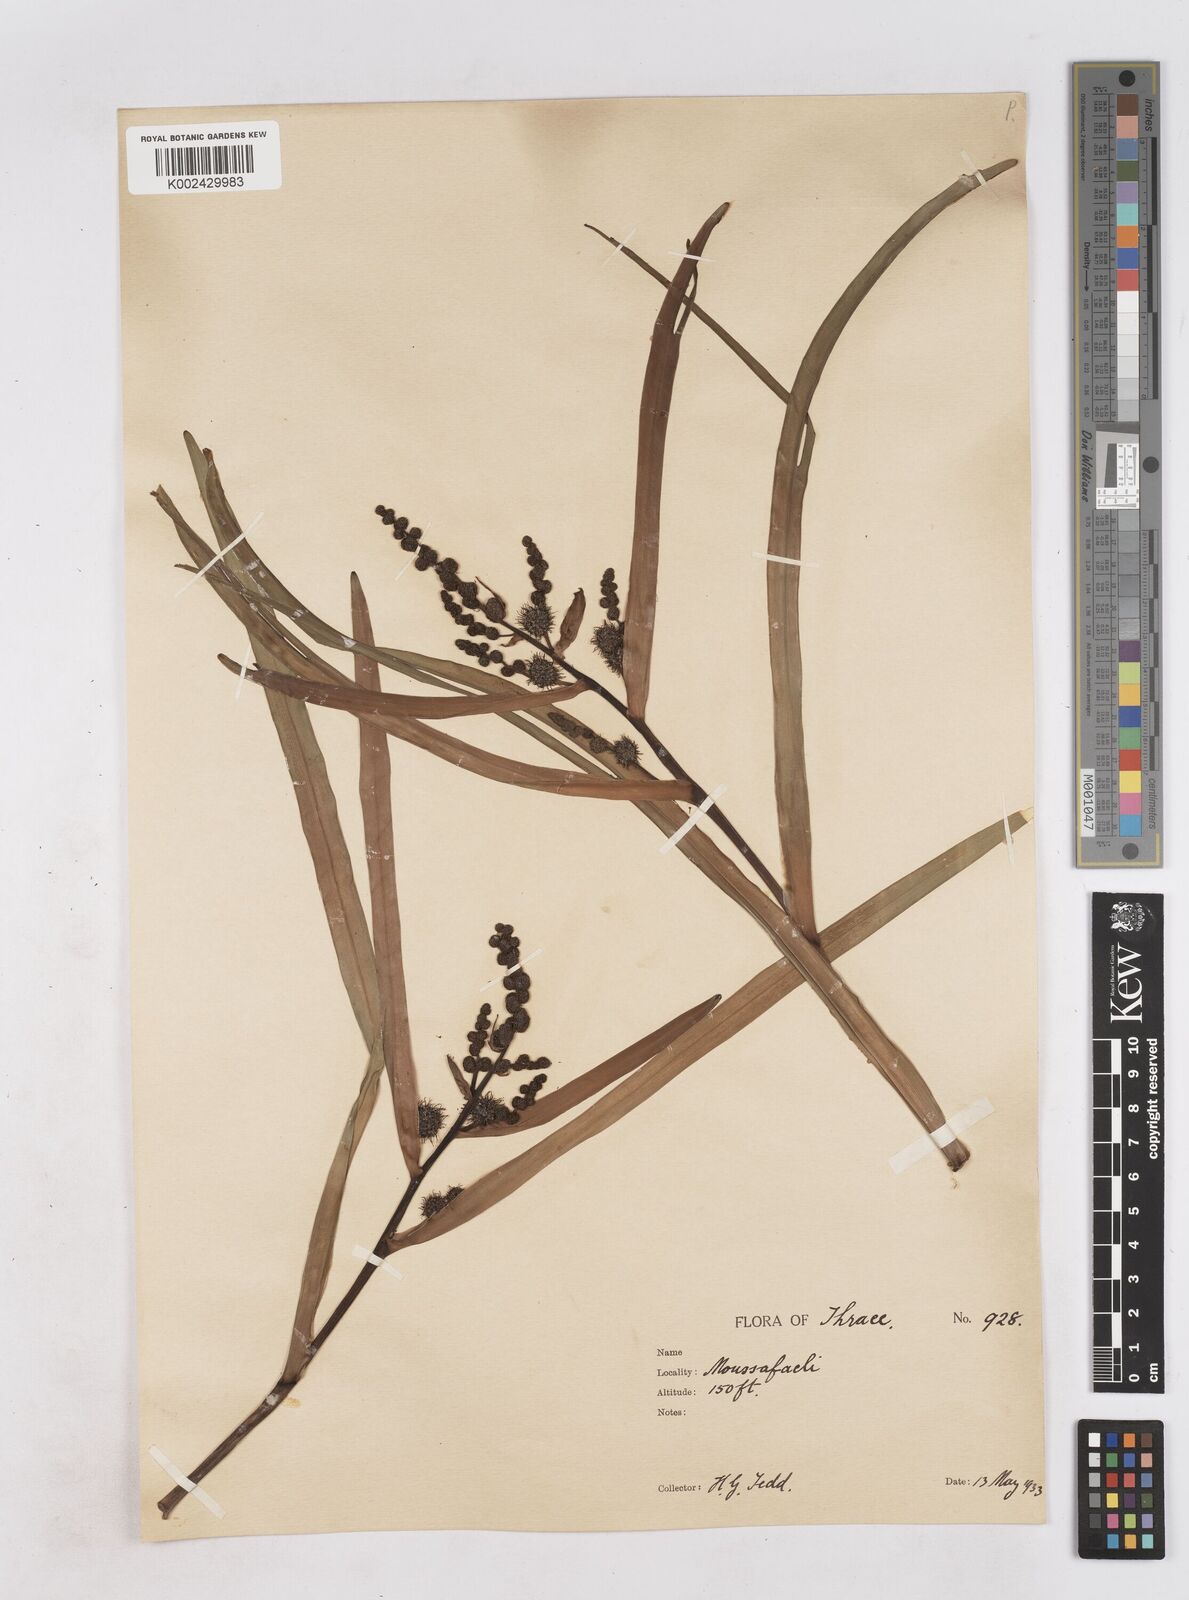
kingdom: Plantae
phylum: Tracheophyta
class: Liliopsida
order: Poales
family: Typhaceae
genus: Sparganium
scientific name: Sparganium erectum
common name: Branched bur-reed
